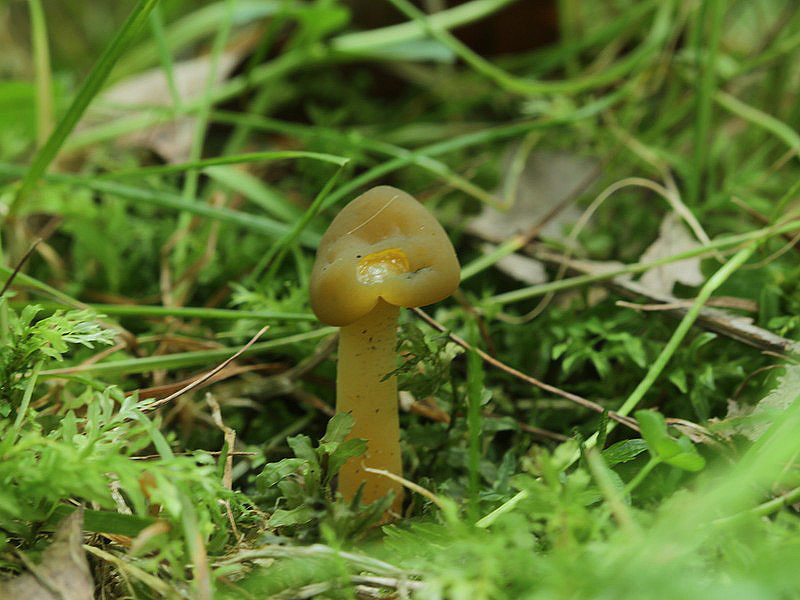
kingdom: Fungi
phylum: Ascomycota
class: Leotiomycetes
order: Leotiales
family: Leotiaceae
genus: Leotia
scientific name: Leotia lubrica
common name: ravsvamp
